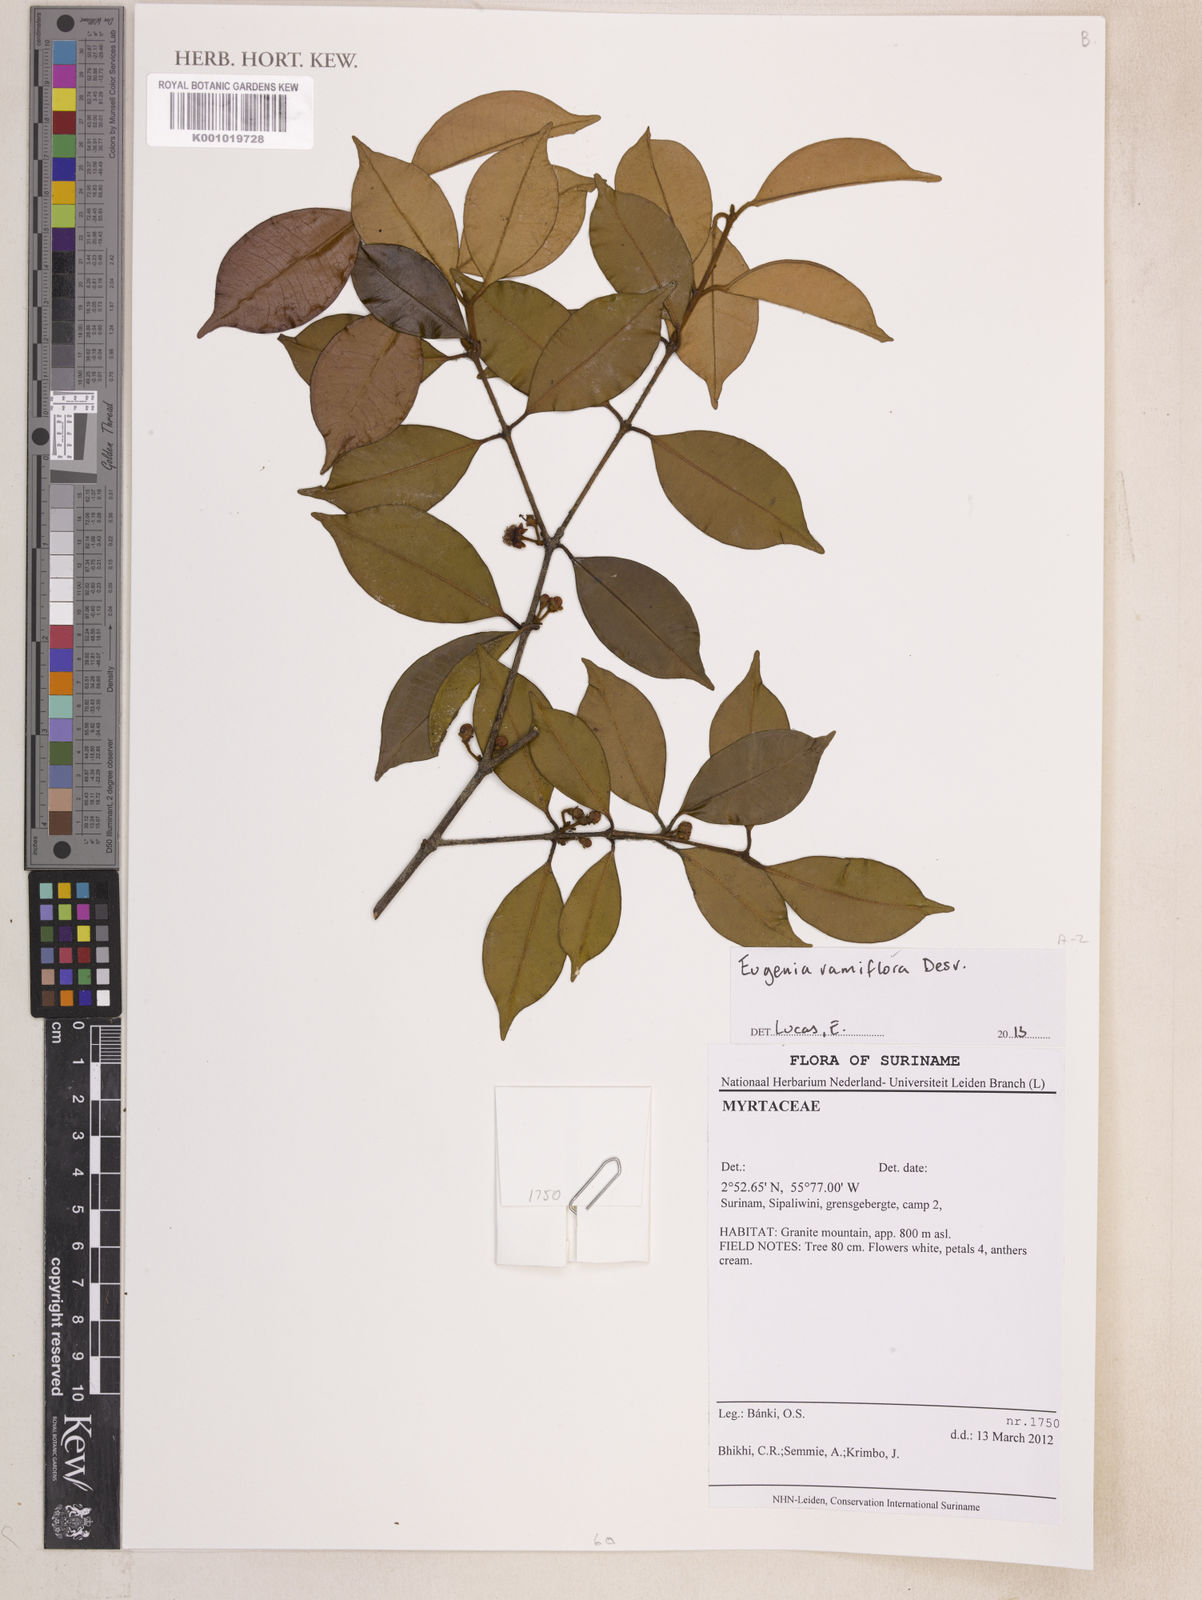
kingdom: Plantae
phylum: Tracheophyta
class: Magnoliopsida
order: Myrtales
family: Myrtaceae
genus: Eugenia
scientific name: Eugenia ramiflora
